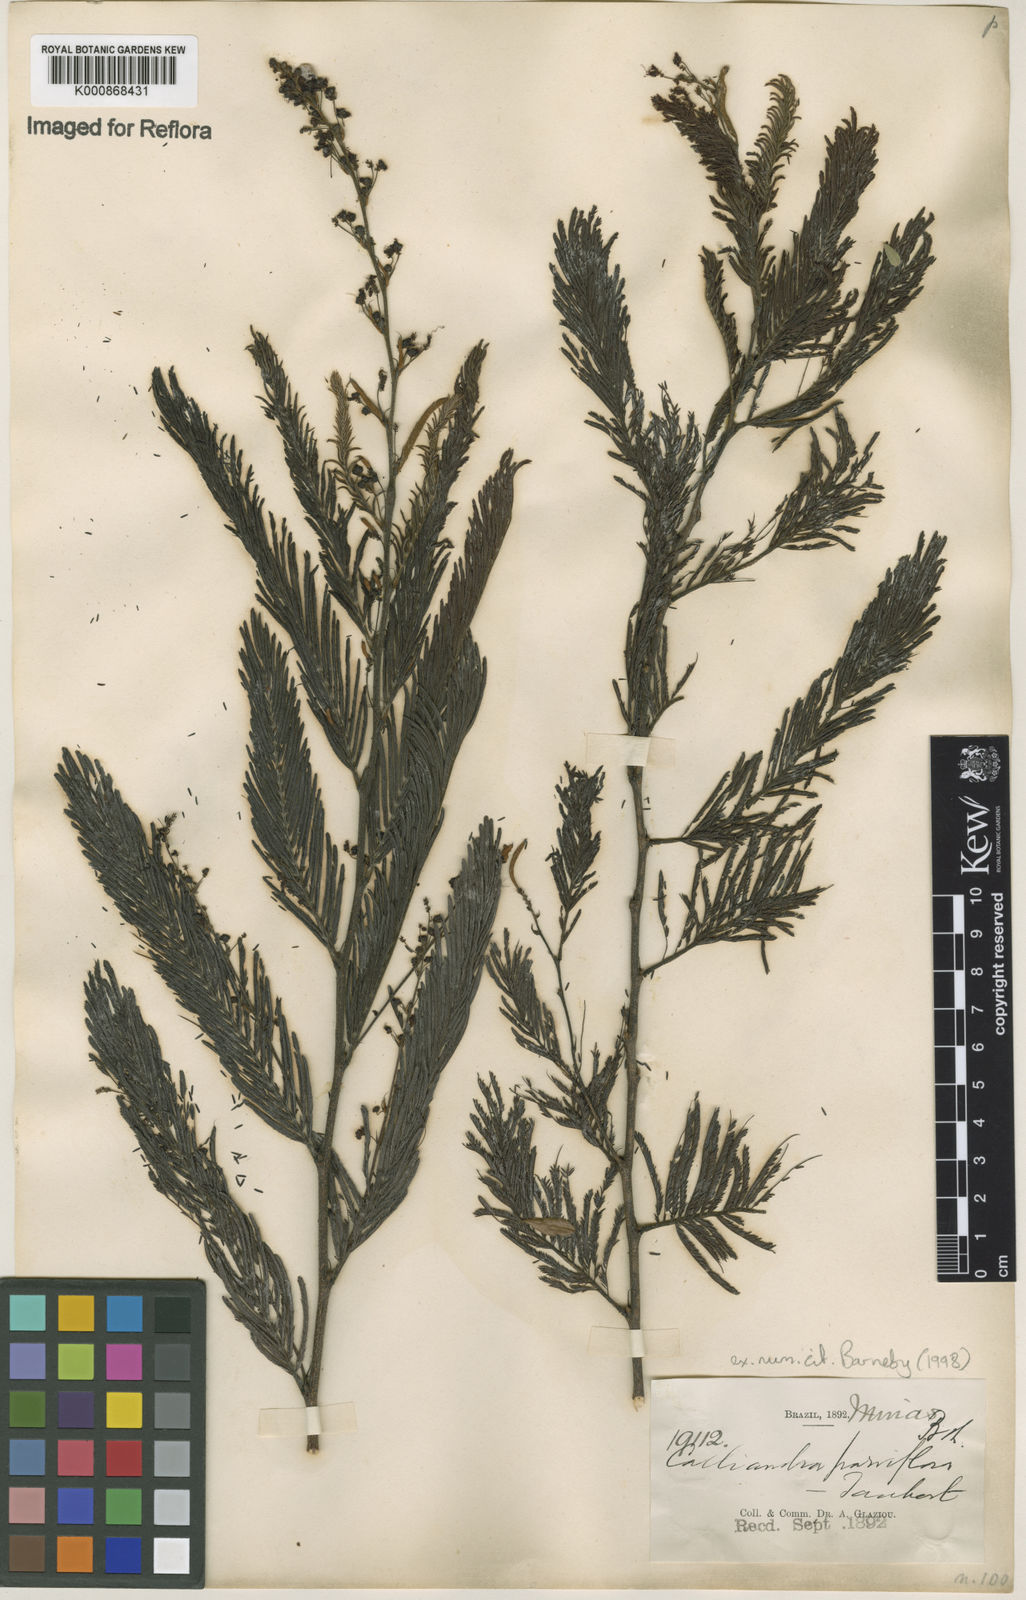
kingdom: Plantae
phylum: Tracheophyta
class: Magnoliopsida
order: Fabales
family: Fabaceae
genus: Calliandra
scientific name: Calliandra parviflora
